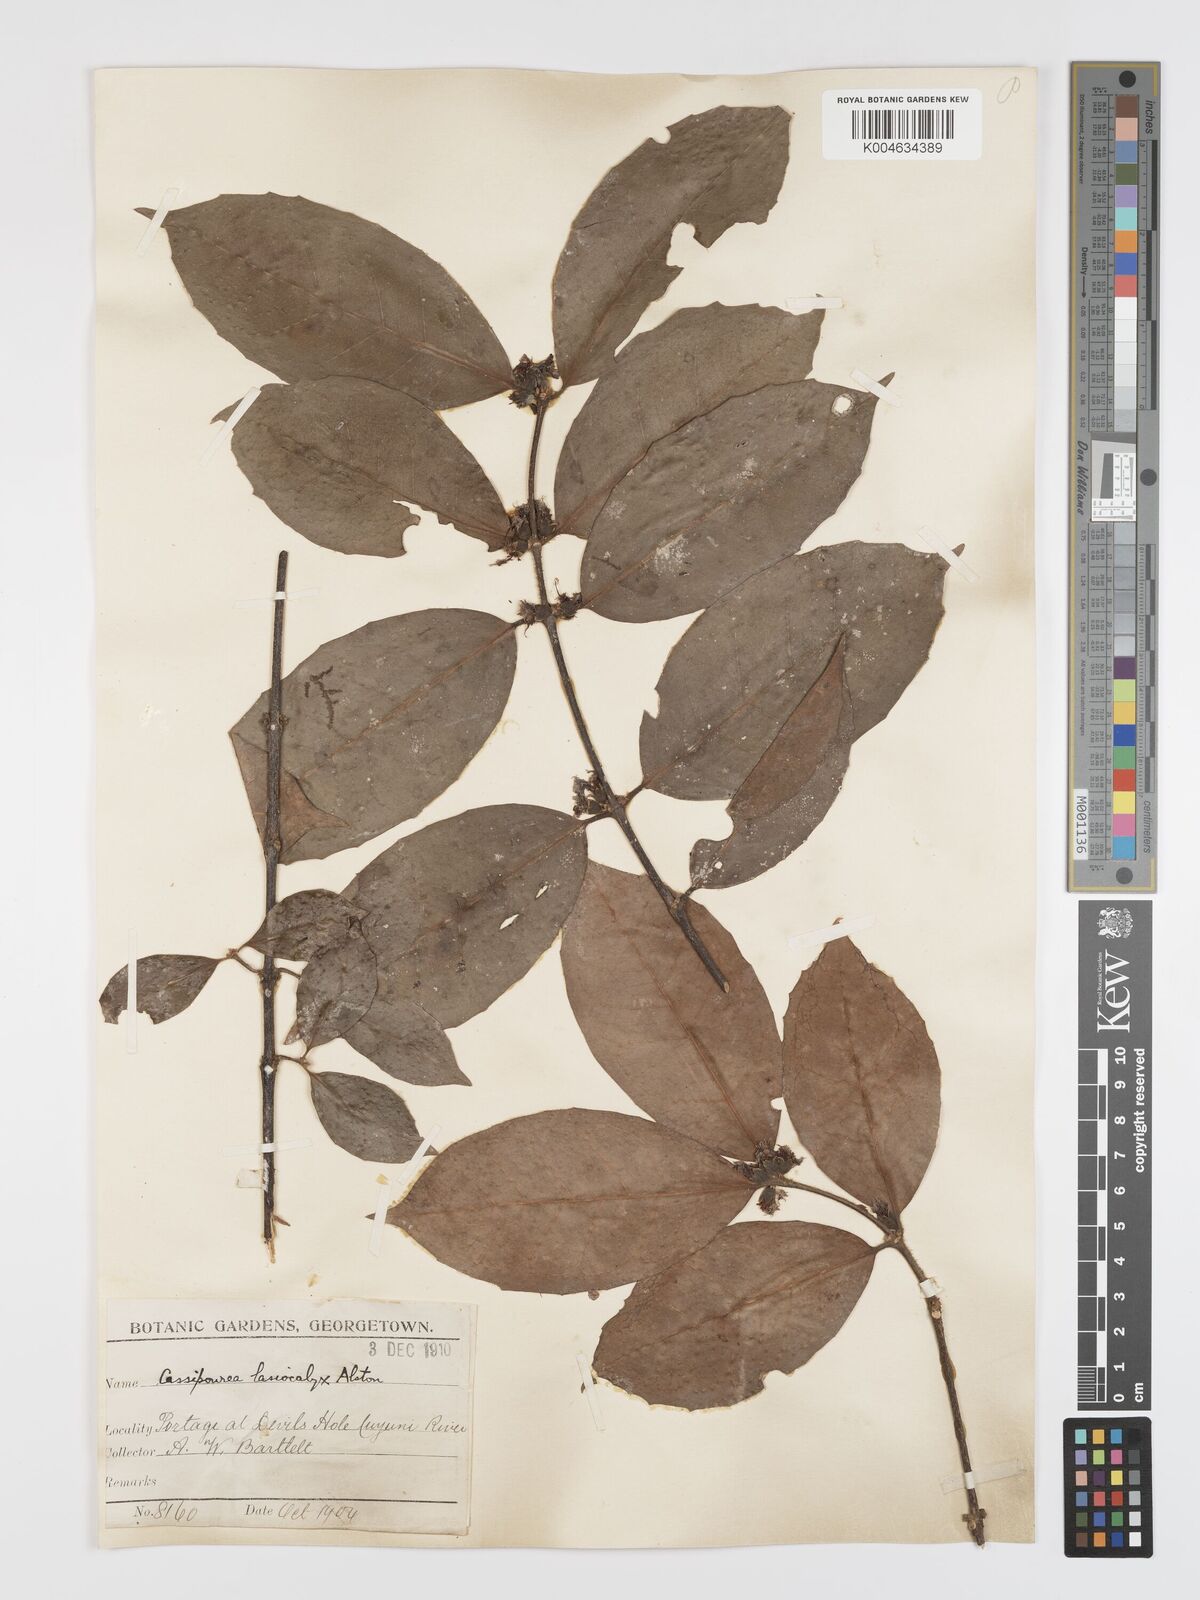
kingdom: Plantae
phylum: Tracheophyta
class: Magnoliopsida
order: Malpighiales
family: Rhizophoraceae
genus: Cassipourea
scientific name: Cassipourea lasiocalyx
